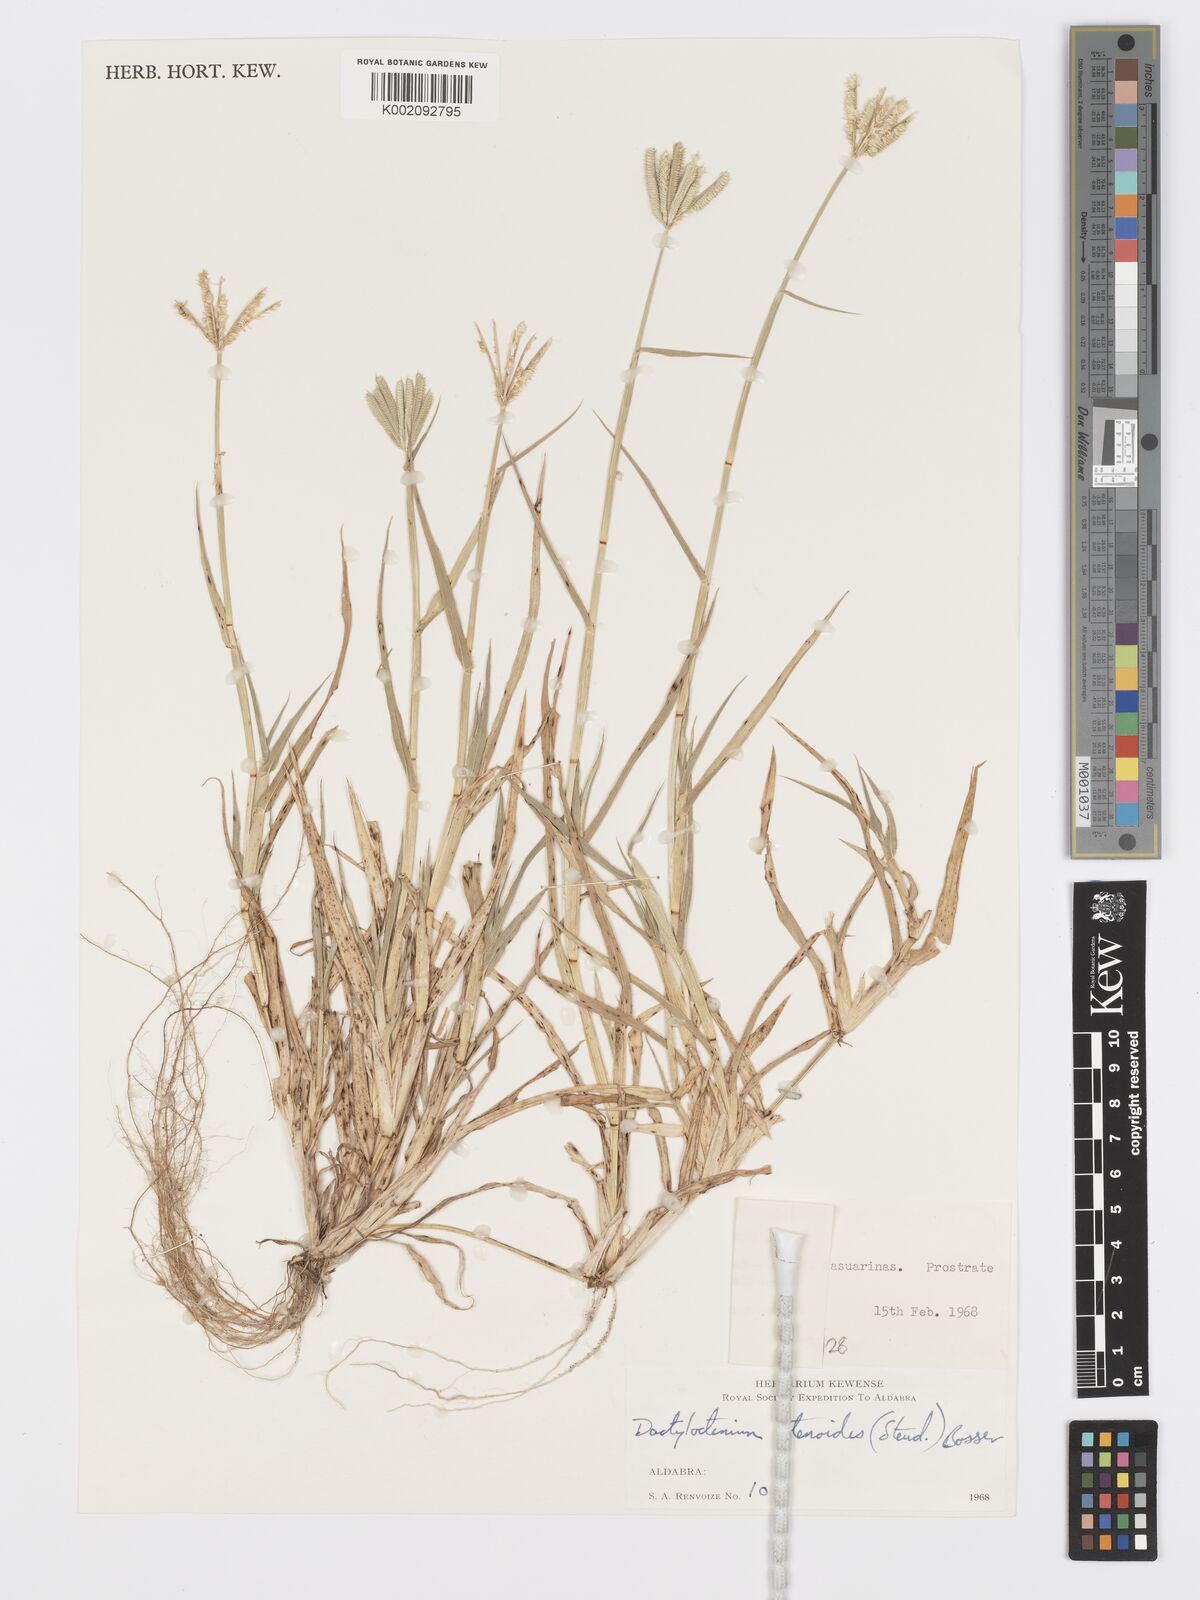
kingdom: Plantae
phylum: Tracheophyta
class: Liliopsida
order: Poales
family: Poaceae
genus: Dactyloctenium
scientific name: Dactyloctenium ctenoides
